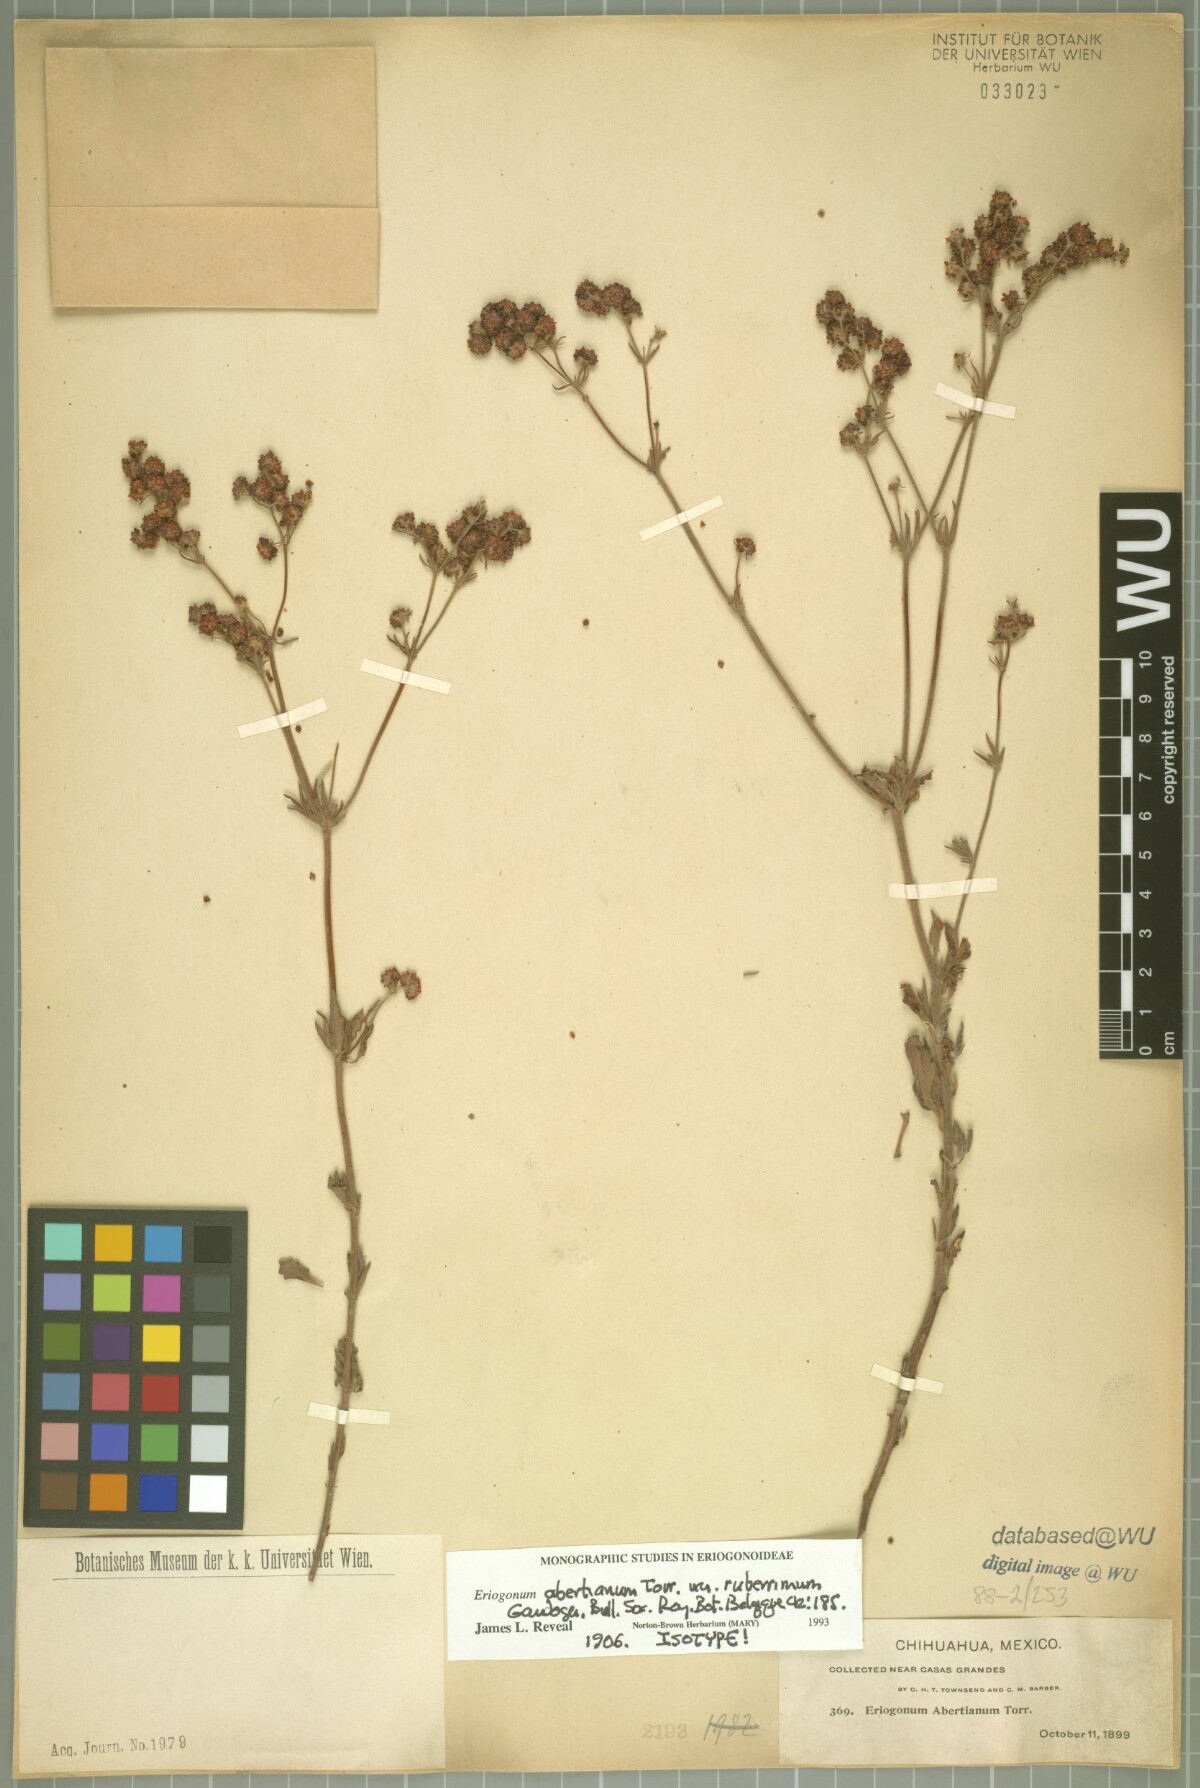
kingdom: Plantae
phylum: Tracheophyta
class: Magnoliopsida
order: Caryophyllales
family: Polygonaceae
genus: Eriogonum
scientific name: Eriogonum abertianum
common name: Abert's wild buckwheat
